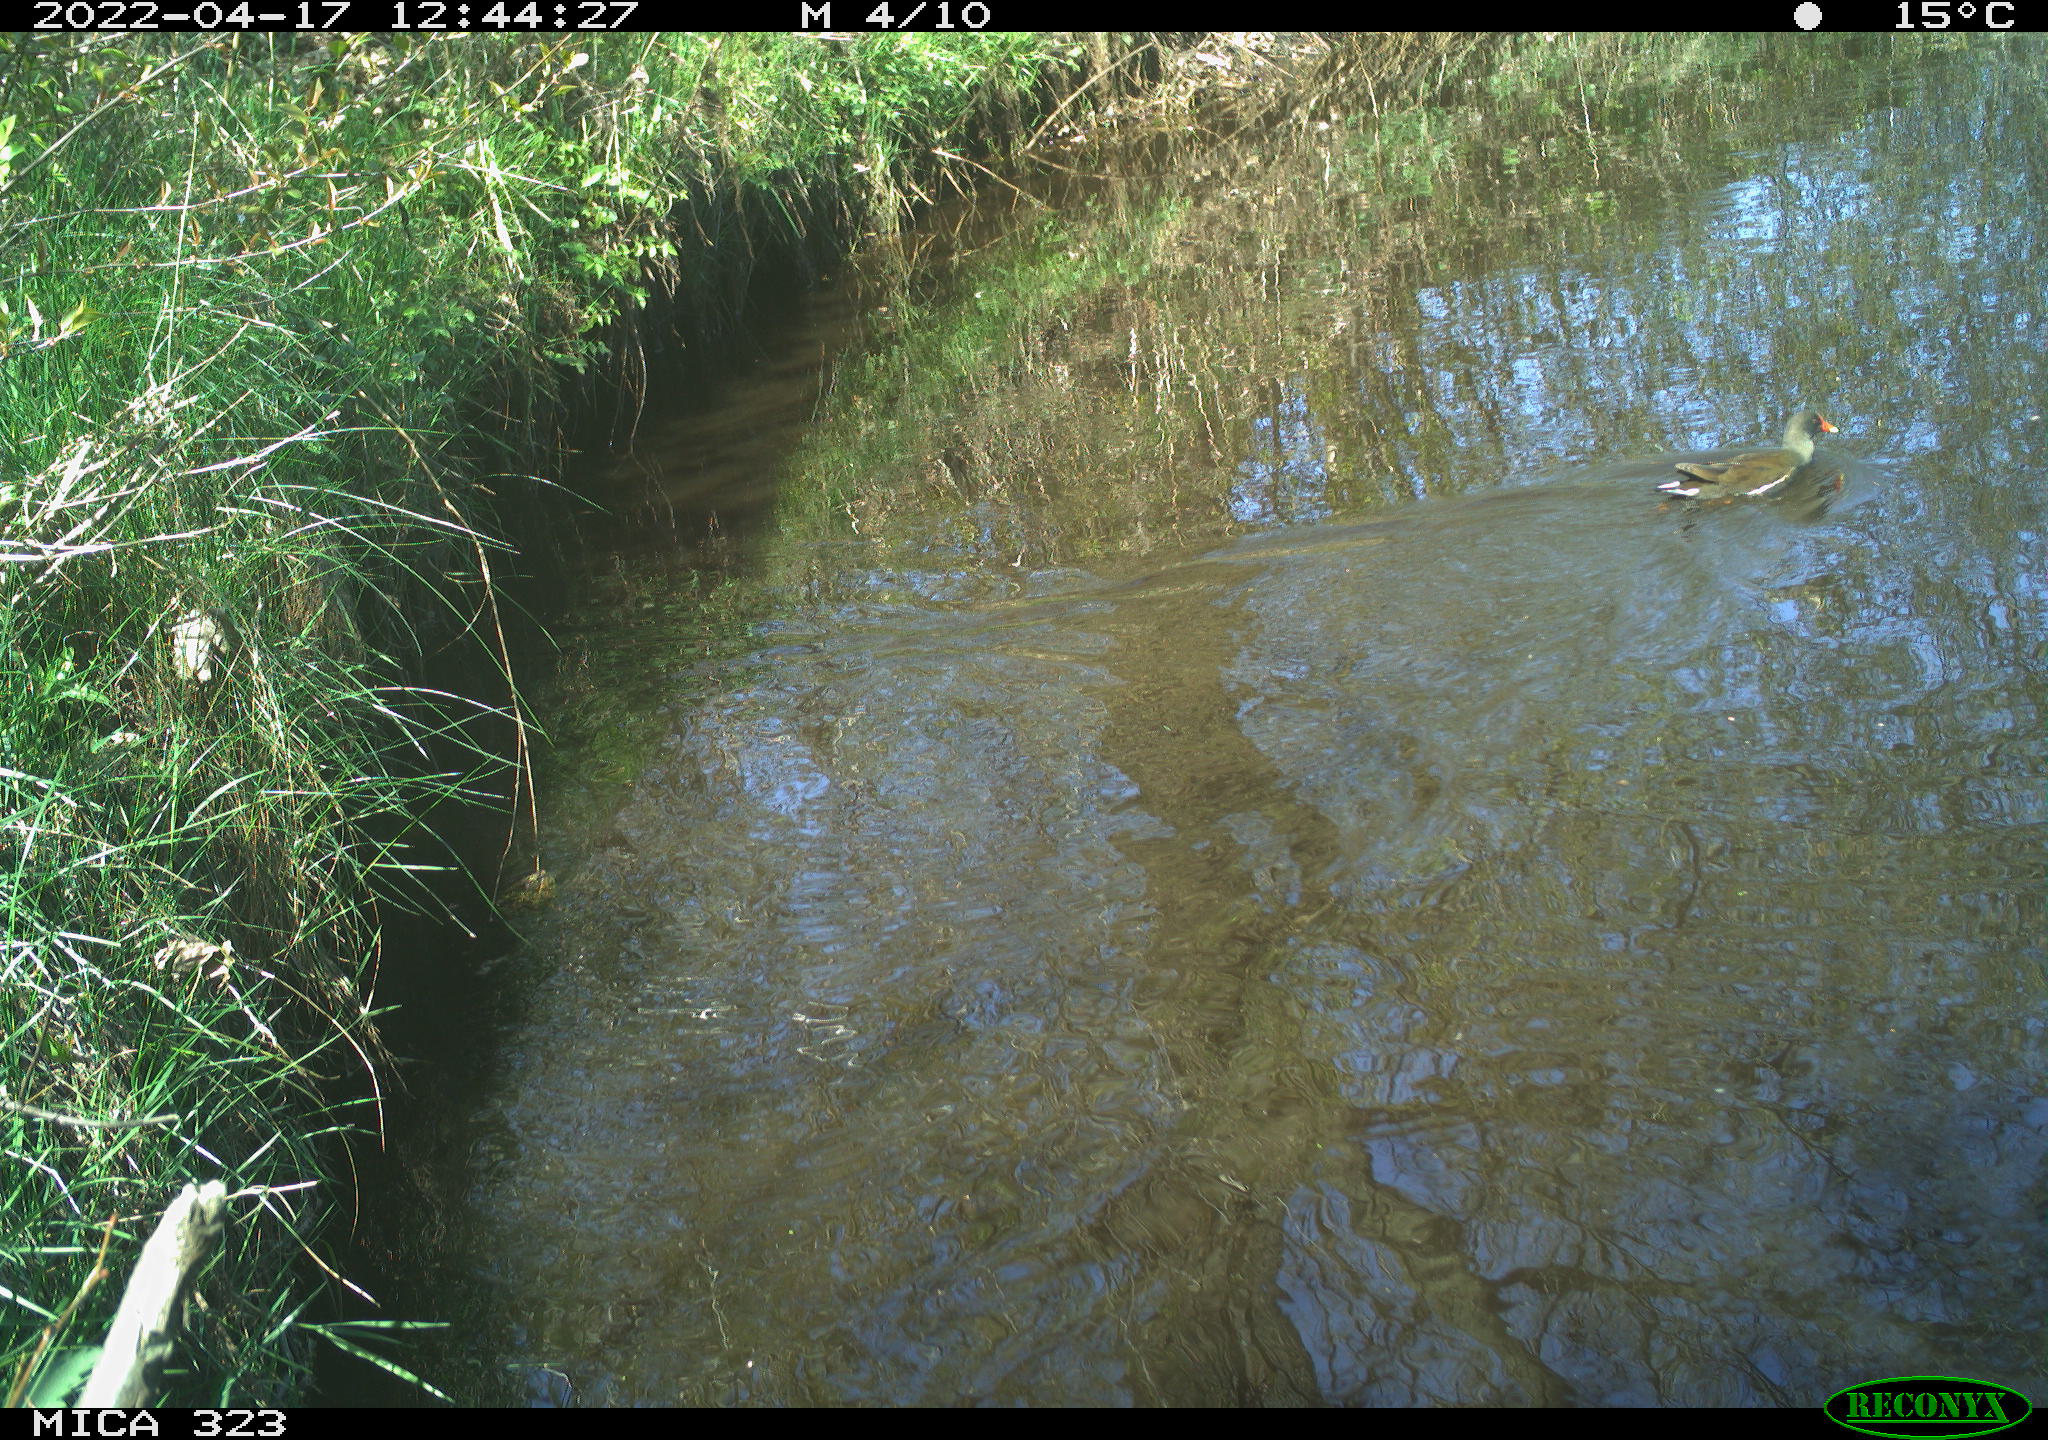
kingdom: Animalia
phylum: Chordata
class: Aves
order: Gruiformes
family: Rallidae
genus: Gallinula
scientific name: Gallinula chloropus
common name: Common moorhen
